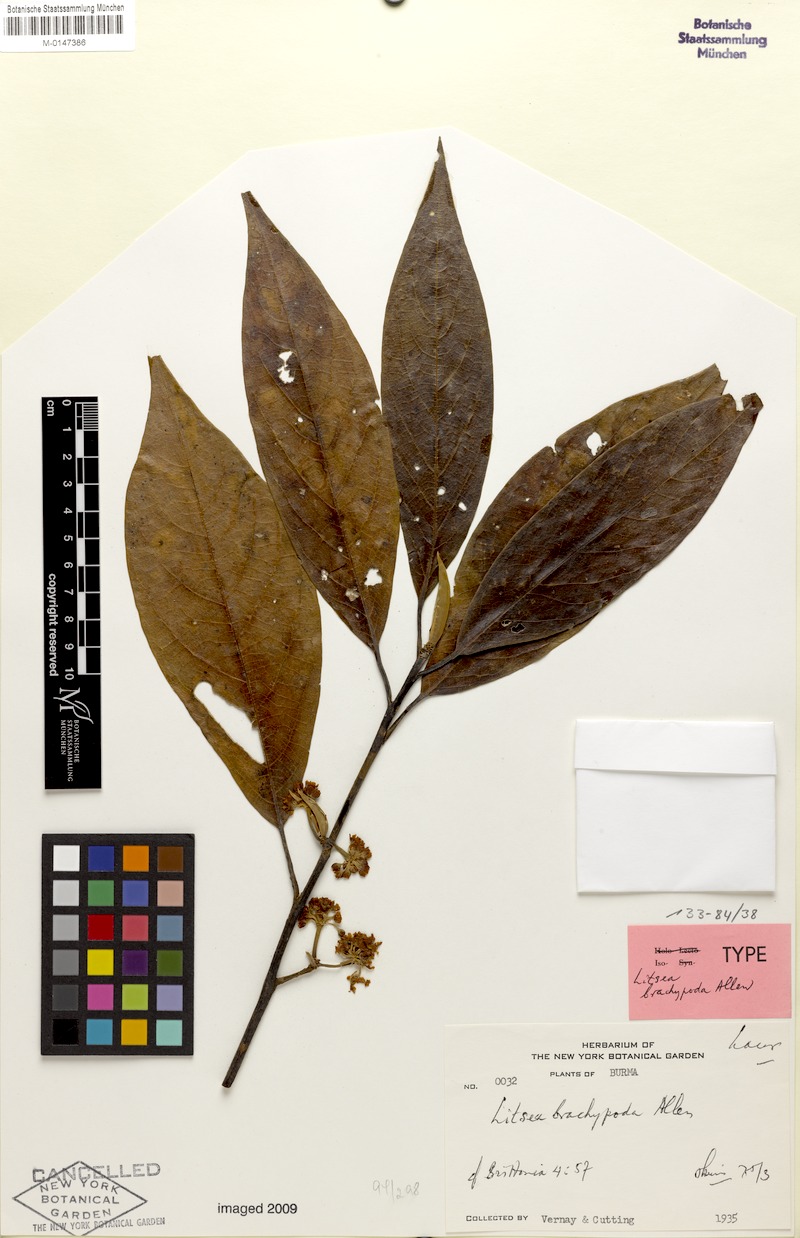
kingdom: Plantae
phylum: Tracheophyta
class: Magnoliopsida
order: Laurales
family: Lauraceae
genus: Litsea
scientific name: Litsea brachypoda
